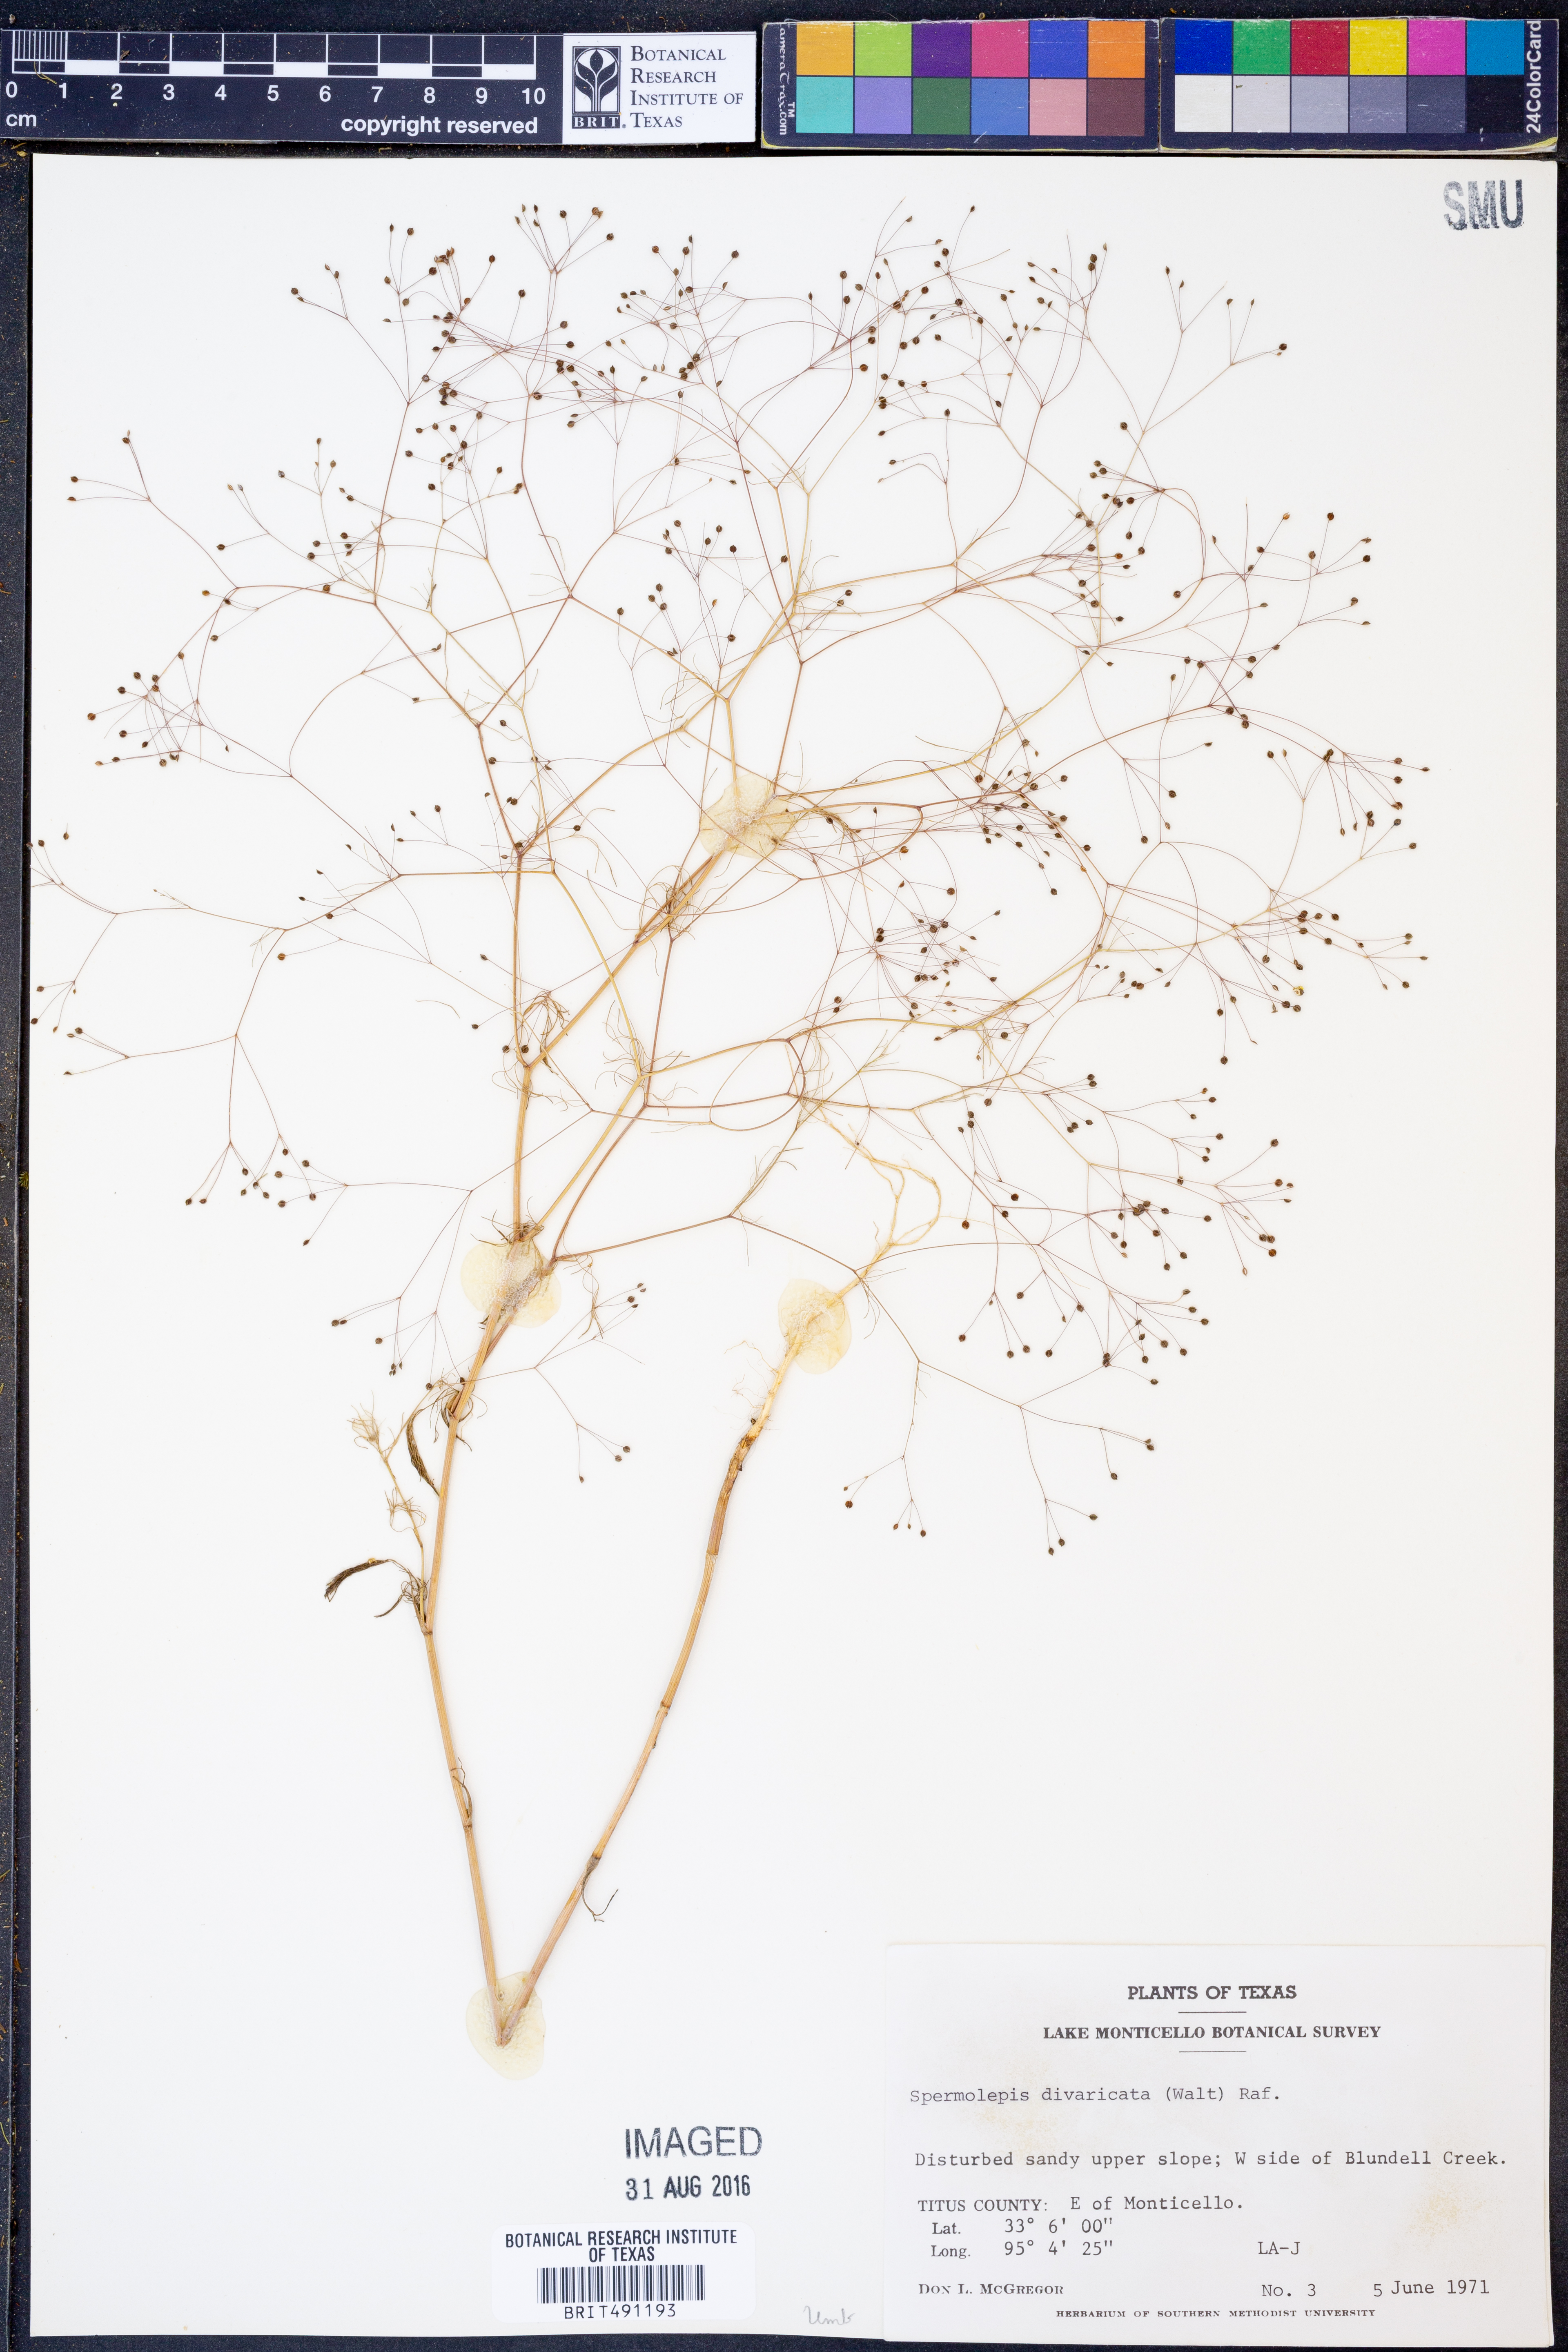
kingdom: Plantae
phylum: Tracheophyta
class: Magnoliopsida
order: Apiales
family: Apiaceae
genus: Spermolepis
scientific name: Spermolepis divaricata
